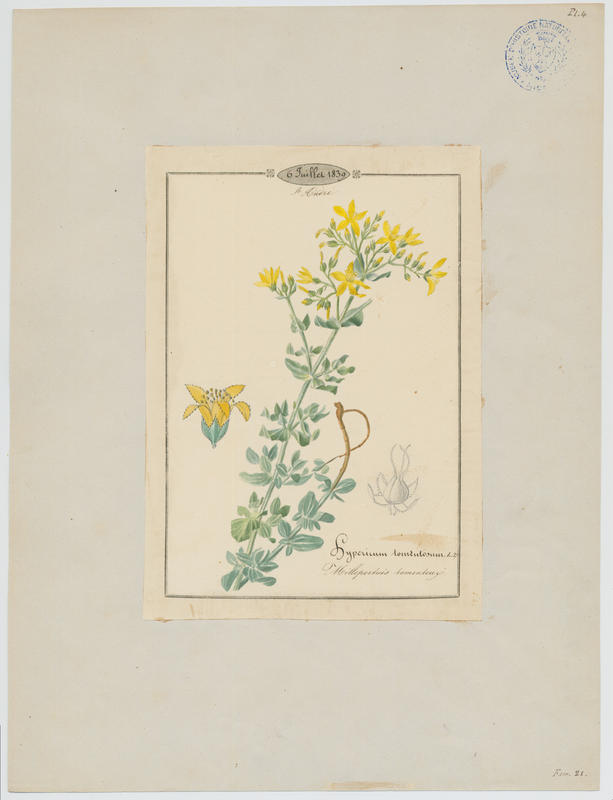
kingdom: Plantae
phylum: Tracheophyta
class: Magnoliopsida
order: Malpighiales
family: Hypericaceae
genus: Hypericum
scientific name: Hypericum tomentosum
